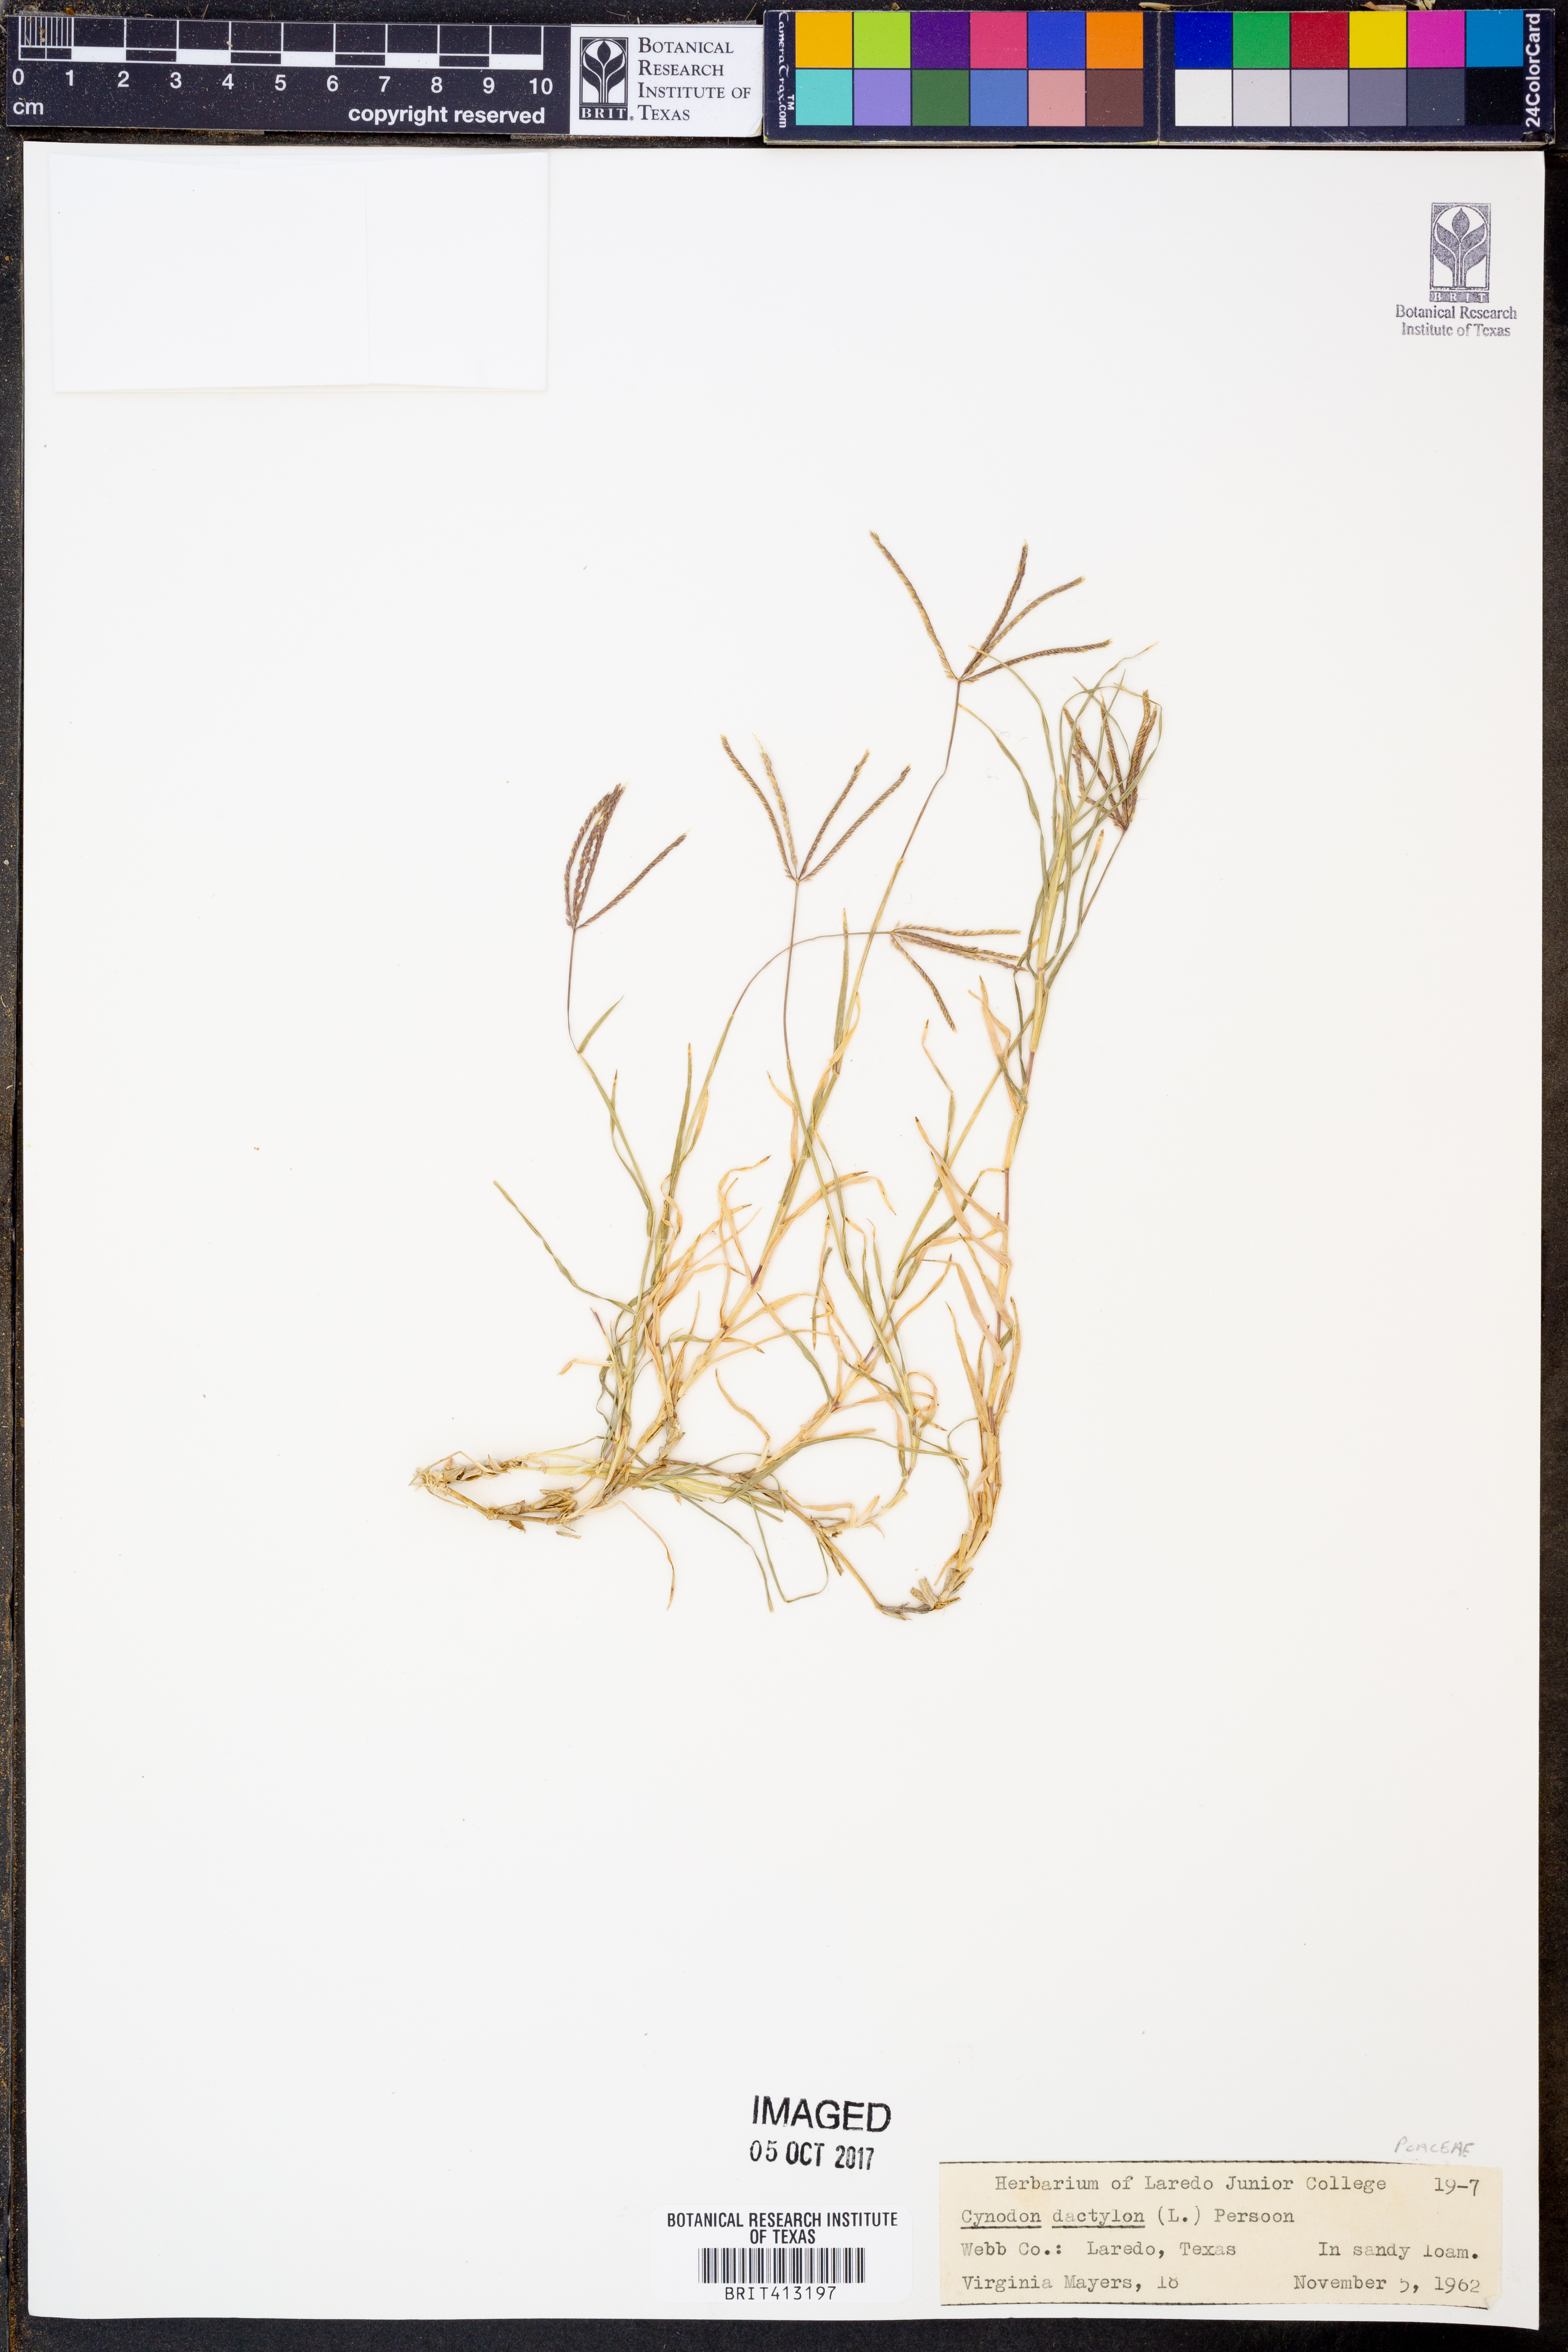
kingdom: Plantae
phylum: Tracheophyta
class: Liliopsida
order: Poales
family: Poaceae
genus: Cynodon
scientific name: Cynodon dactylon
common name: Bermuda grass
